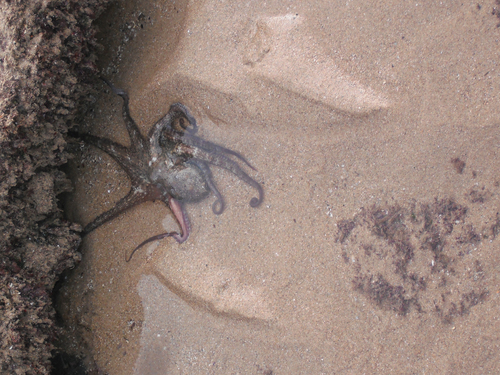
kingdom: Animalia
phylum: Mollusca
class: Cephalopoda
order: Octopoda
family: Octopodidae
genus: Octopus
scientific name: Octopus vulgaris
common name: Common octopus
